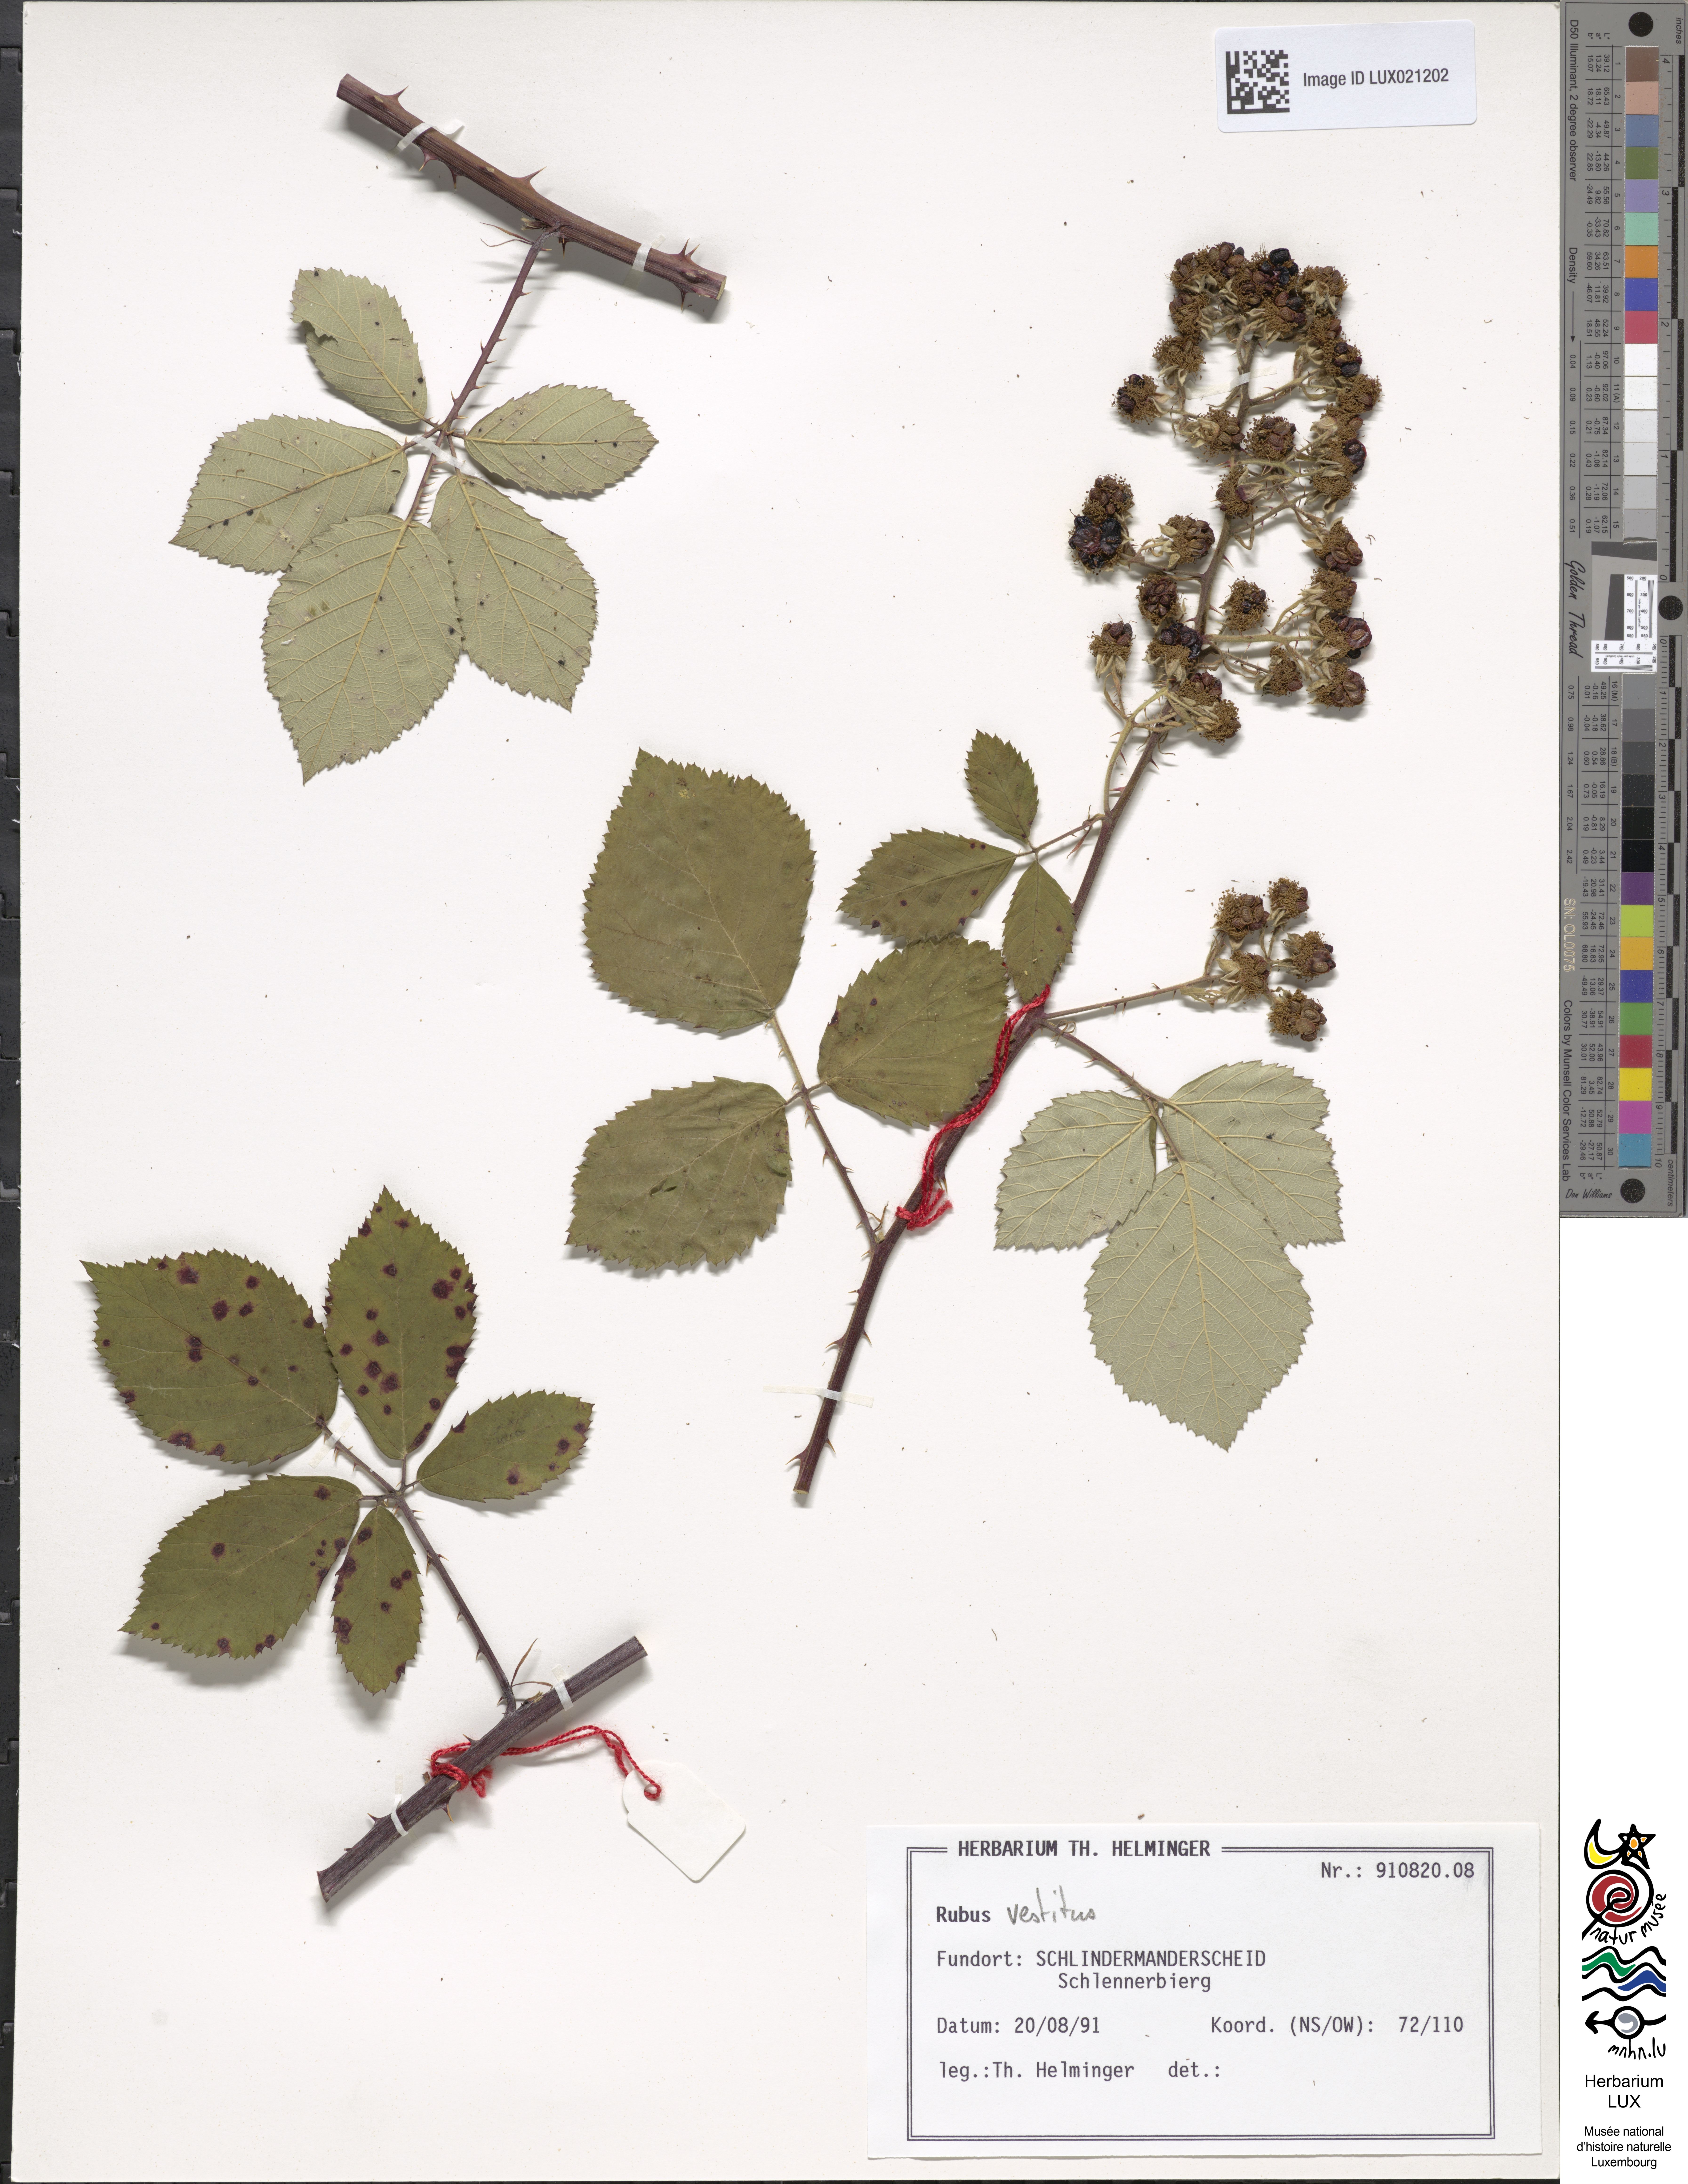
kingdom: Plantae
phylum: Tracheophyta
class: Magnoliopsida
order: Rosales
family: Rosaceae
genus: Rubus
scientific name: Rubus
